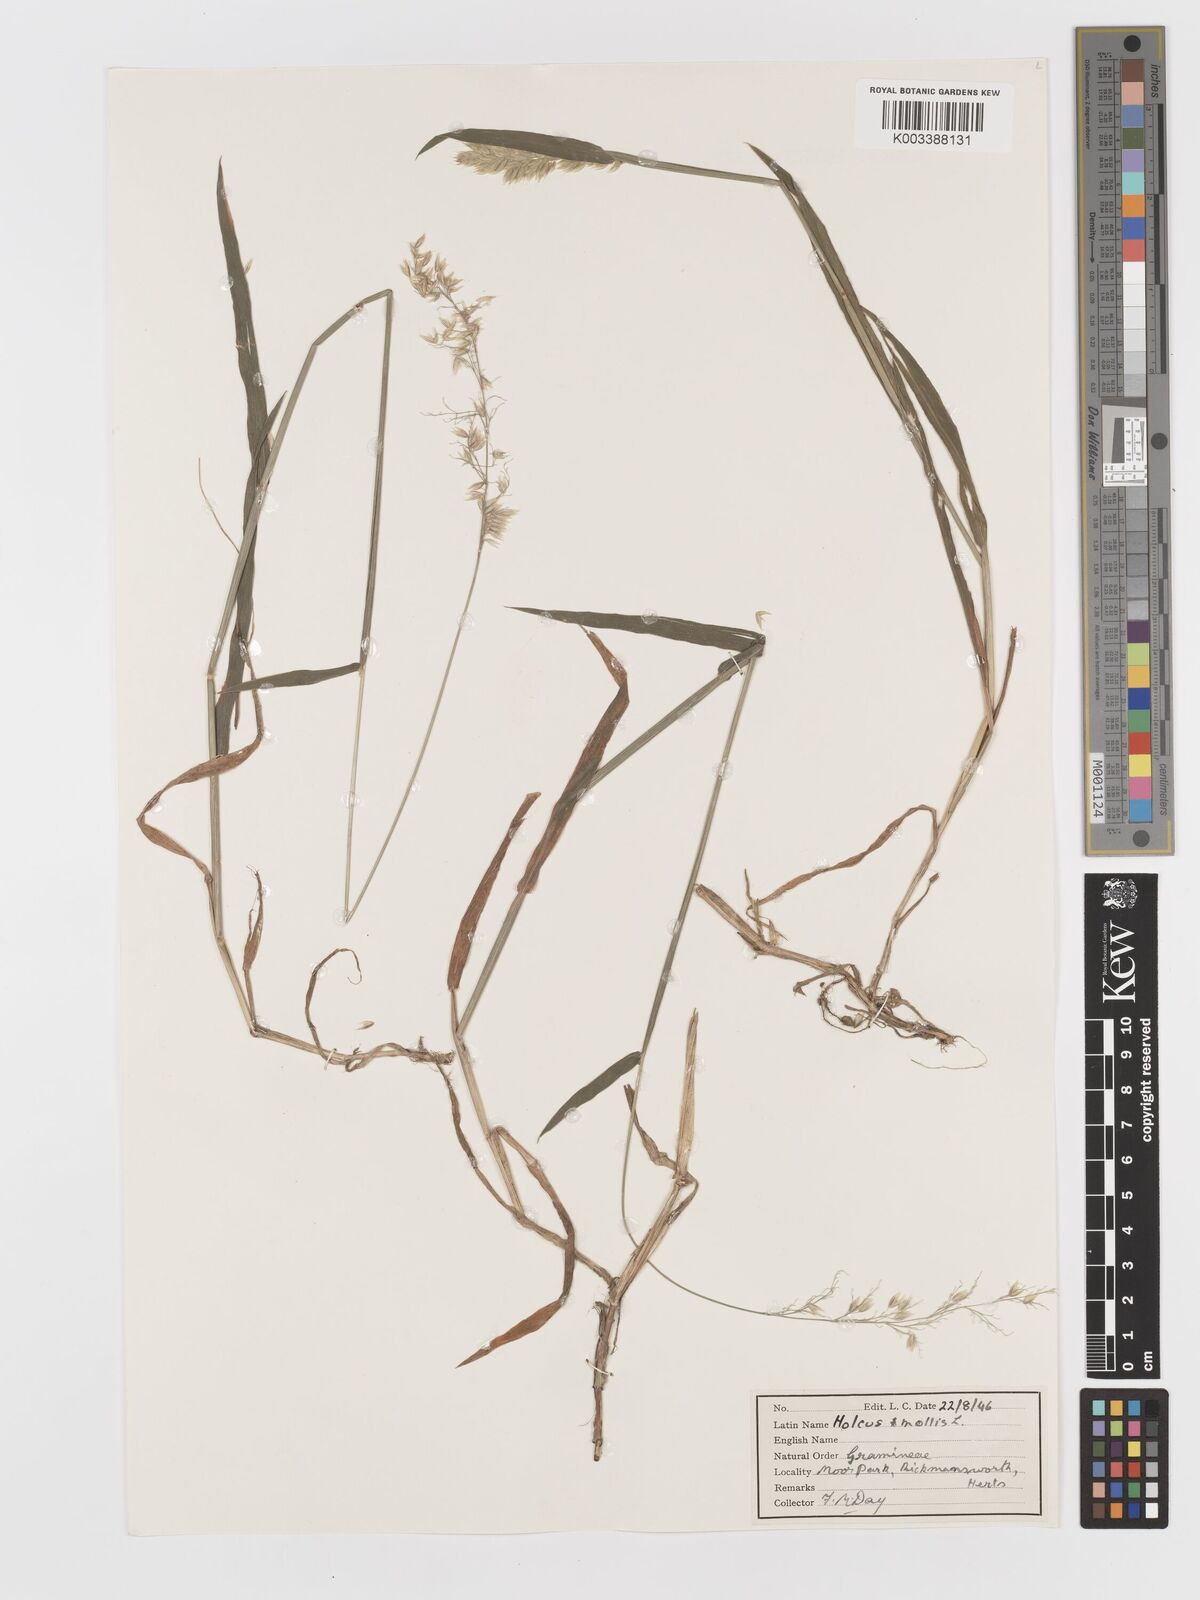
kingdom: Plantae
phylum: Tracheophyta
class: Liliopsida
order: Poales
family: Poaceae
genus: Holcus
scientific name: Holcus mollis
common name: Creeping velvetgrass
